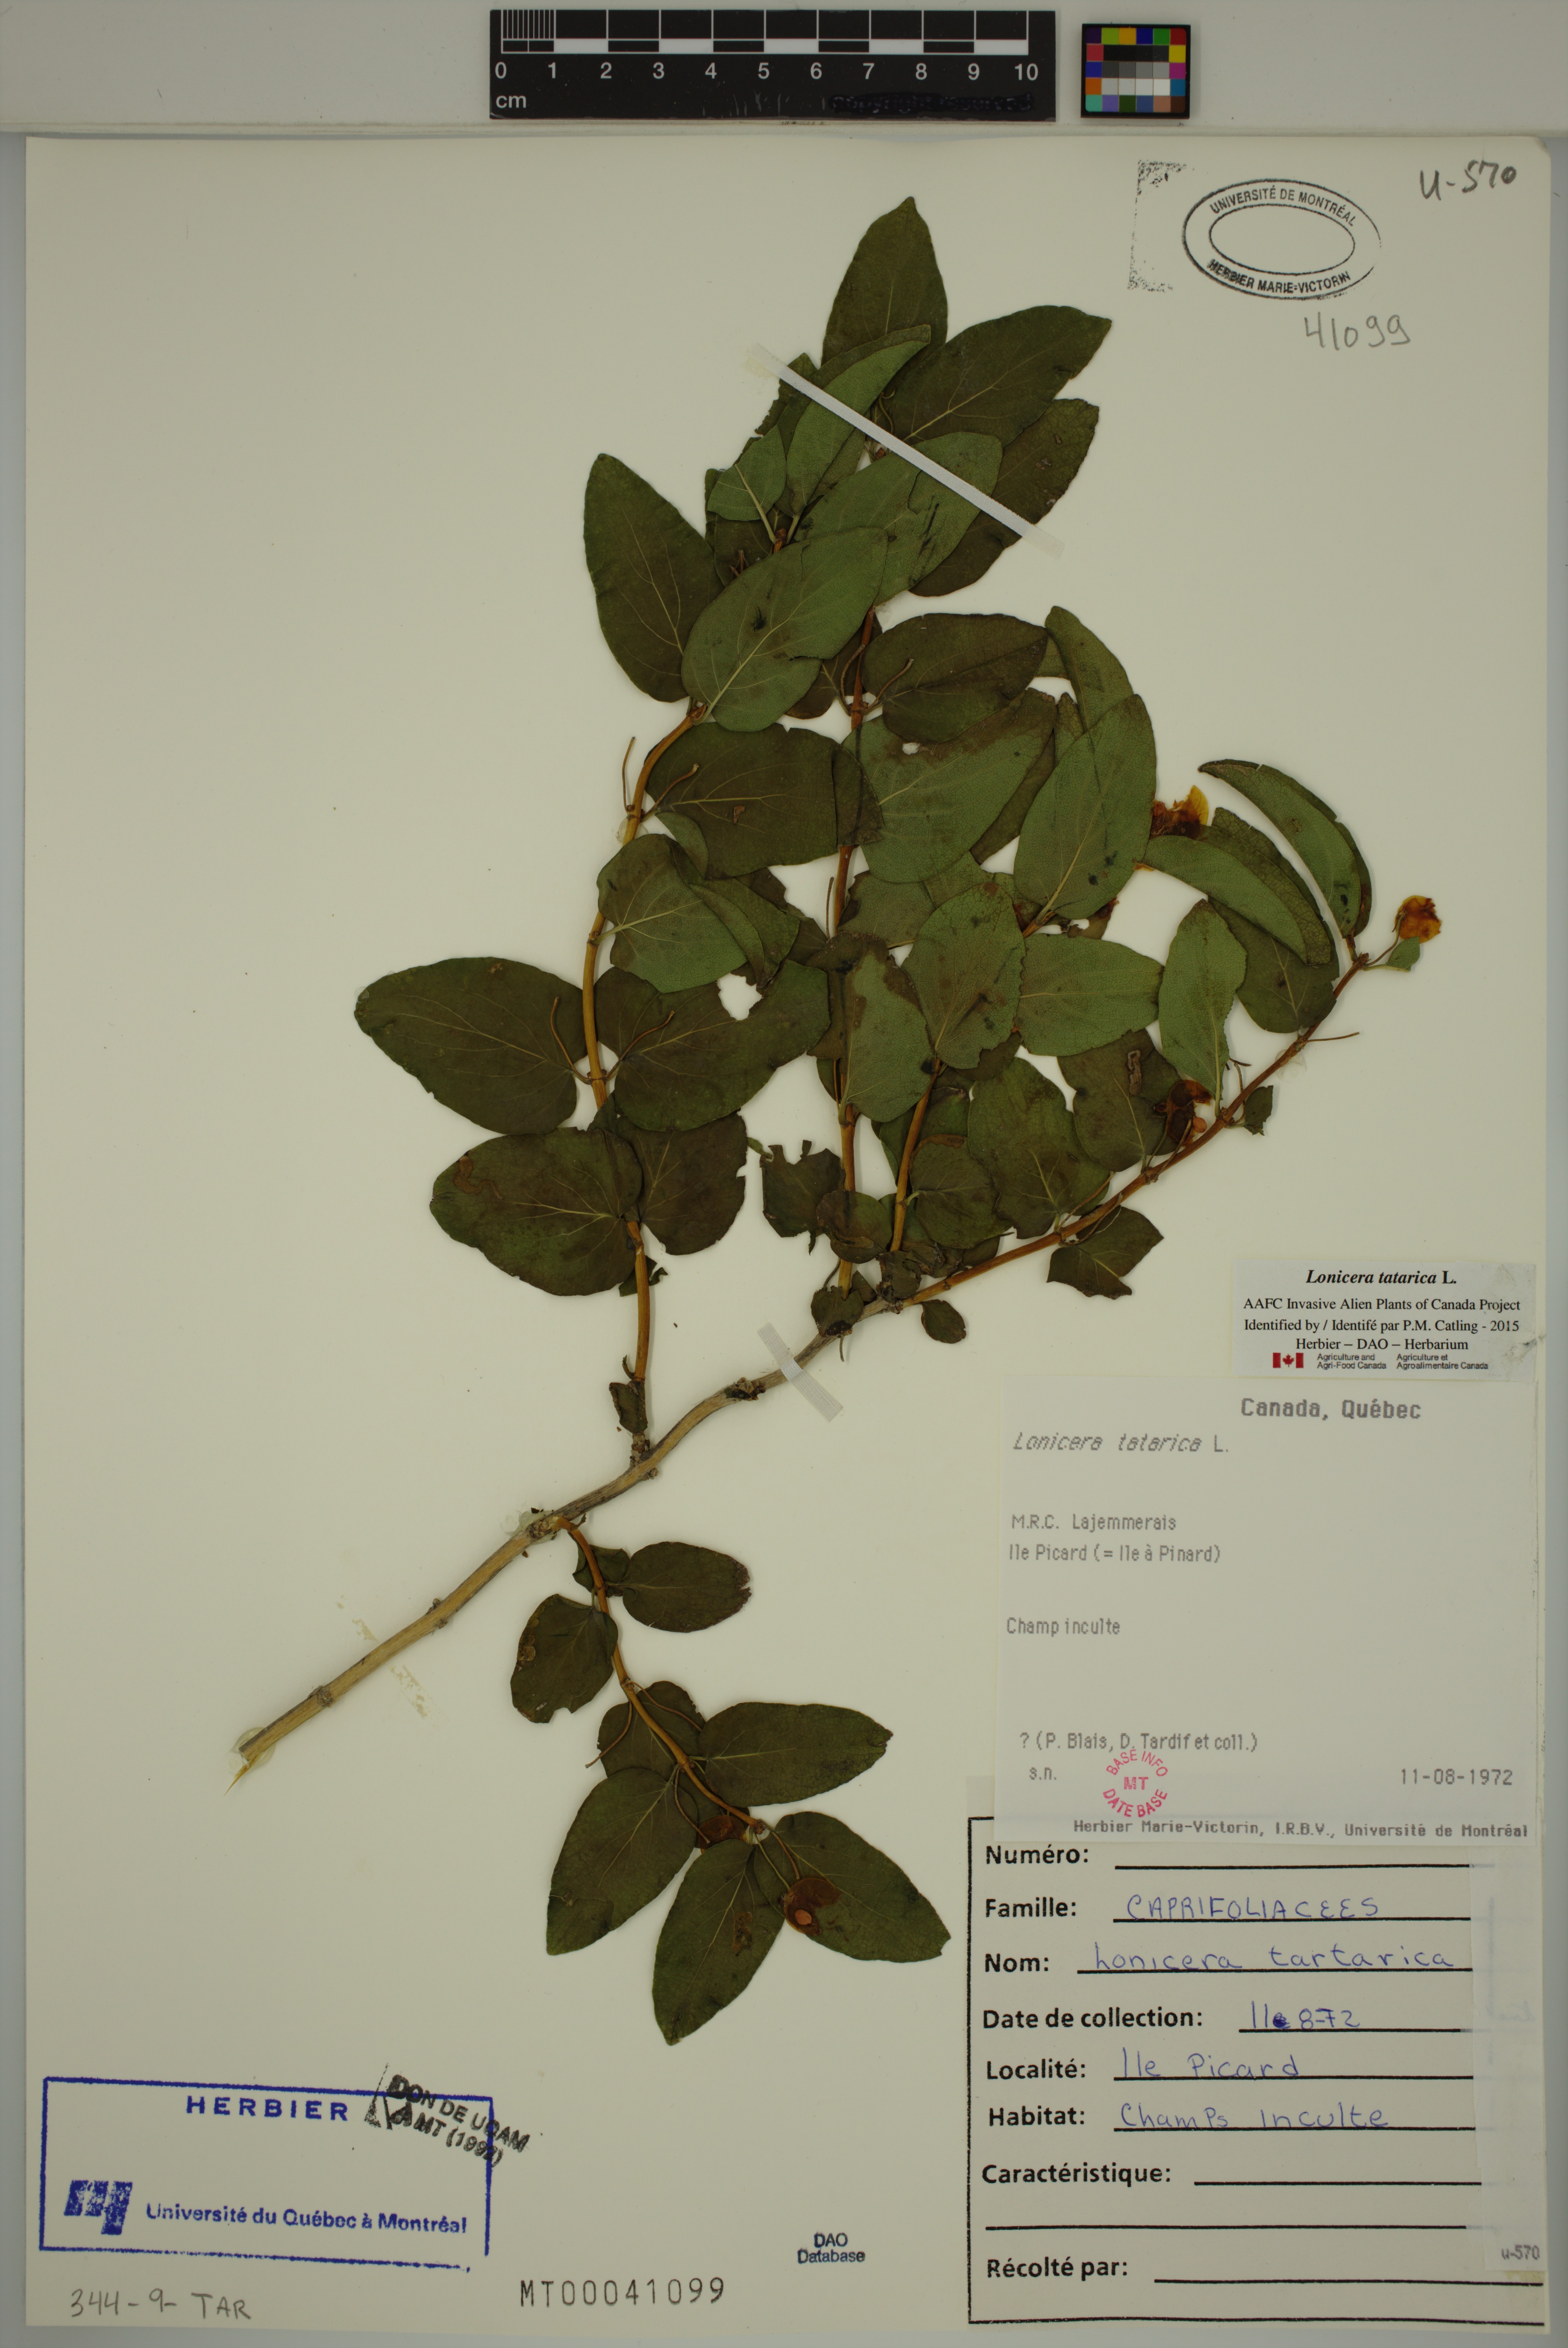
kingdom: Plantae
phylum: Tracheophyta
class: Magnoliopsida
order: Dipsacales
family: Caprifoliaceae
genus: Lonicera
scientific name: Lonicera tatarica
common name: Tatarian honeysuckle
